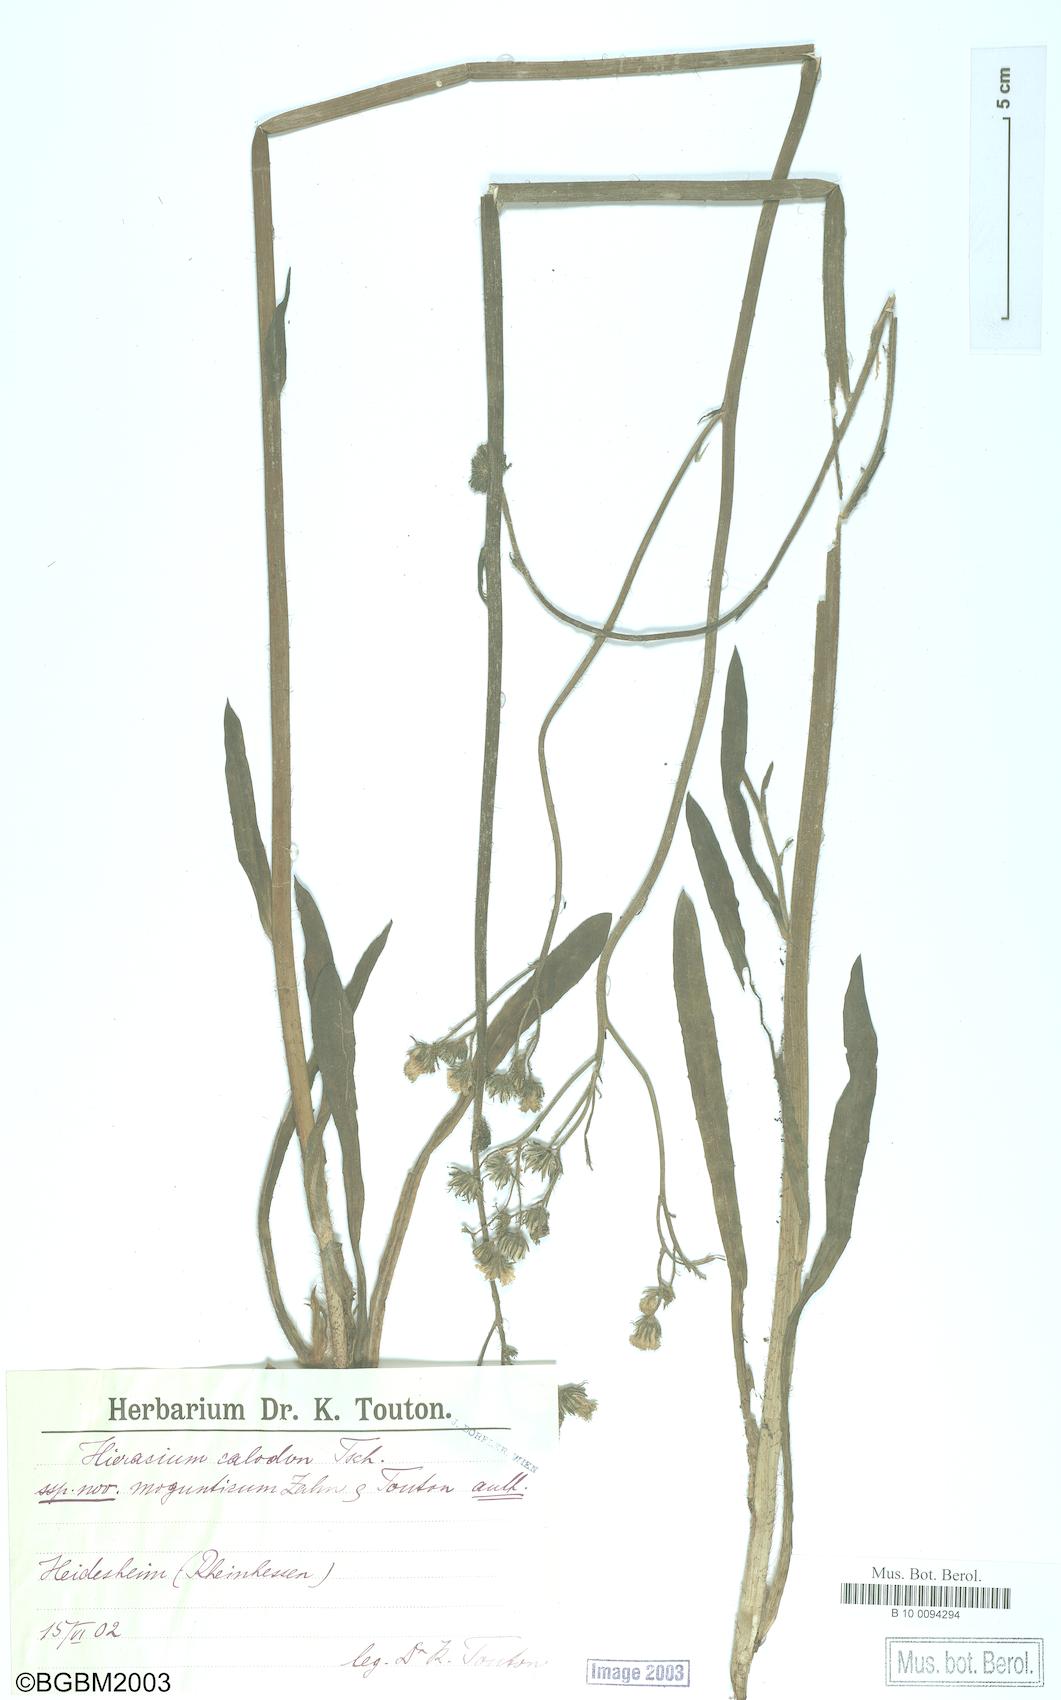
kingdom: Plantae
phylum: Tracheophyta
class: Magnoliopsida
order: Asterales
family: Asteraceae
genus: Pilosella
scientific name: Pilosella duerkhemiensis
